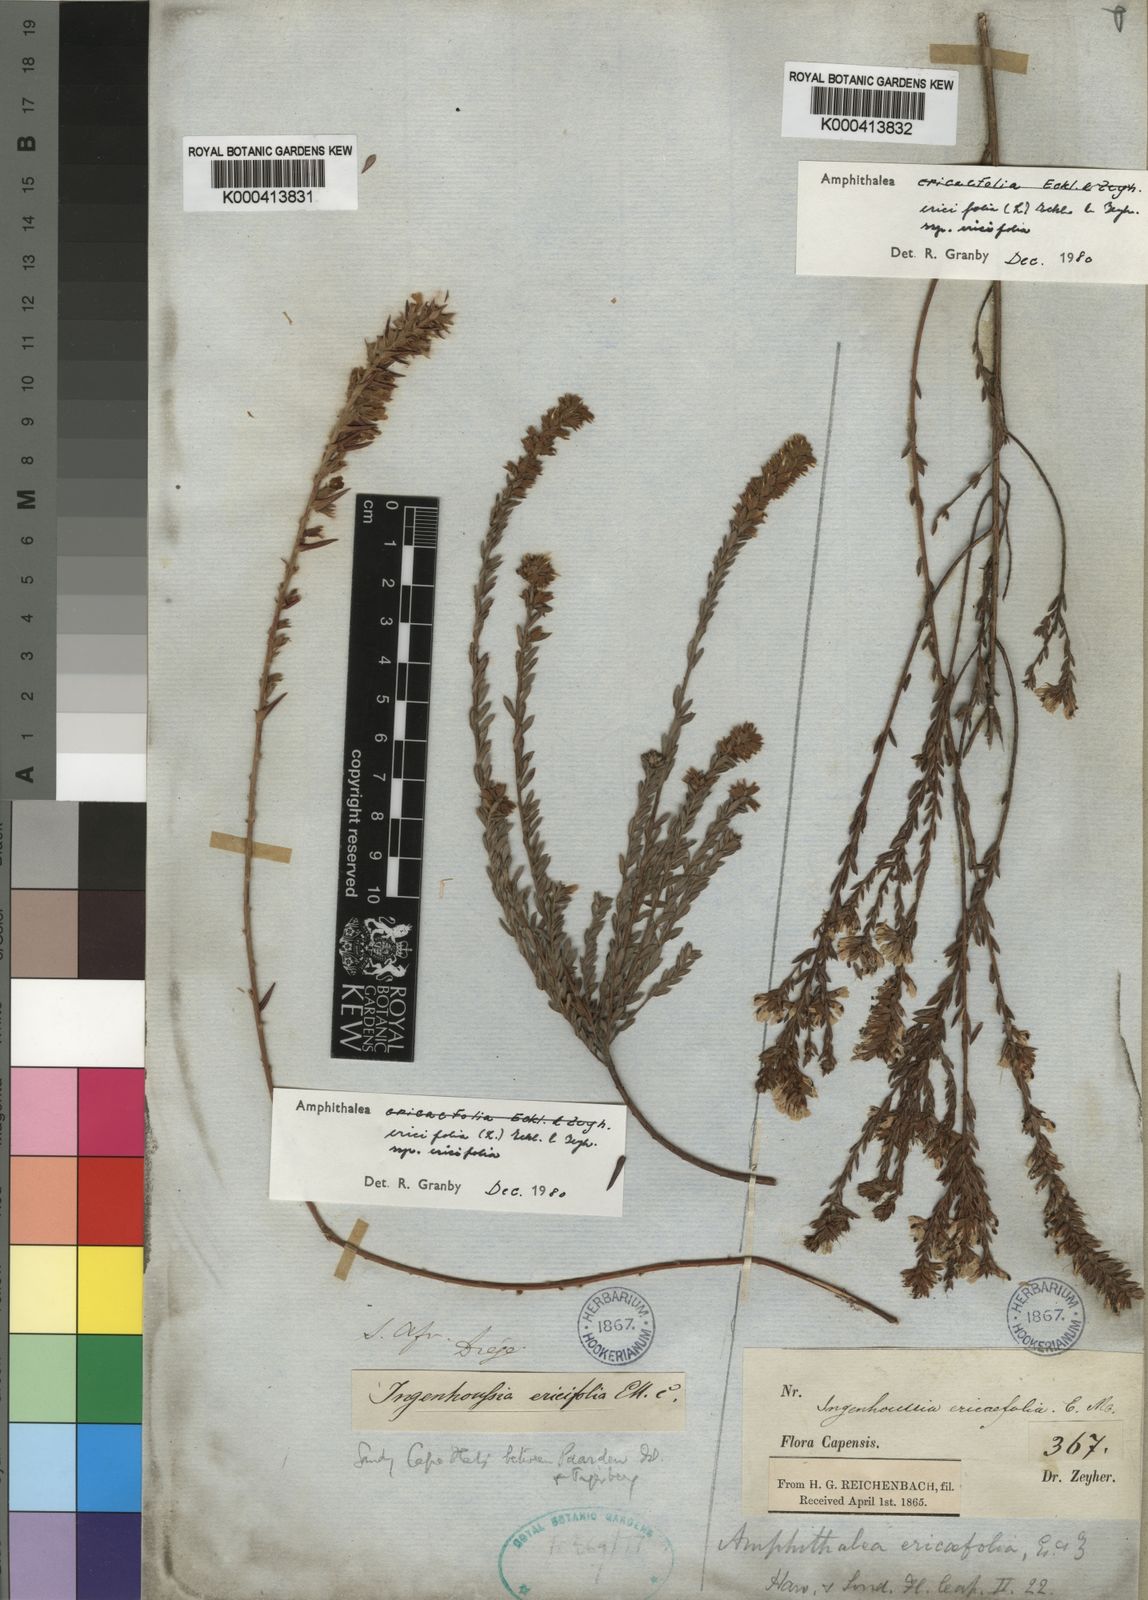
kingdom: Plantae
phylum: Tracheophyta
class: Magnoliopsida
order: Fabales
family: Fabaceae
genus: Amphithalea
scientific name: Amphithalea ericifolia
